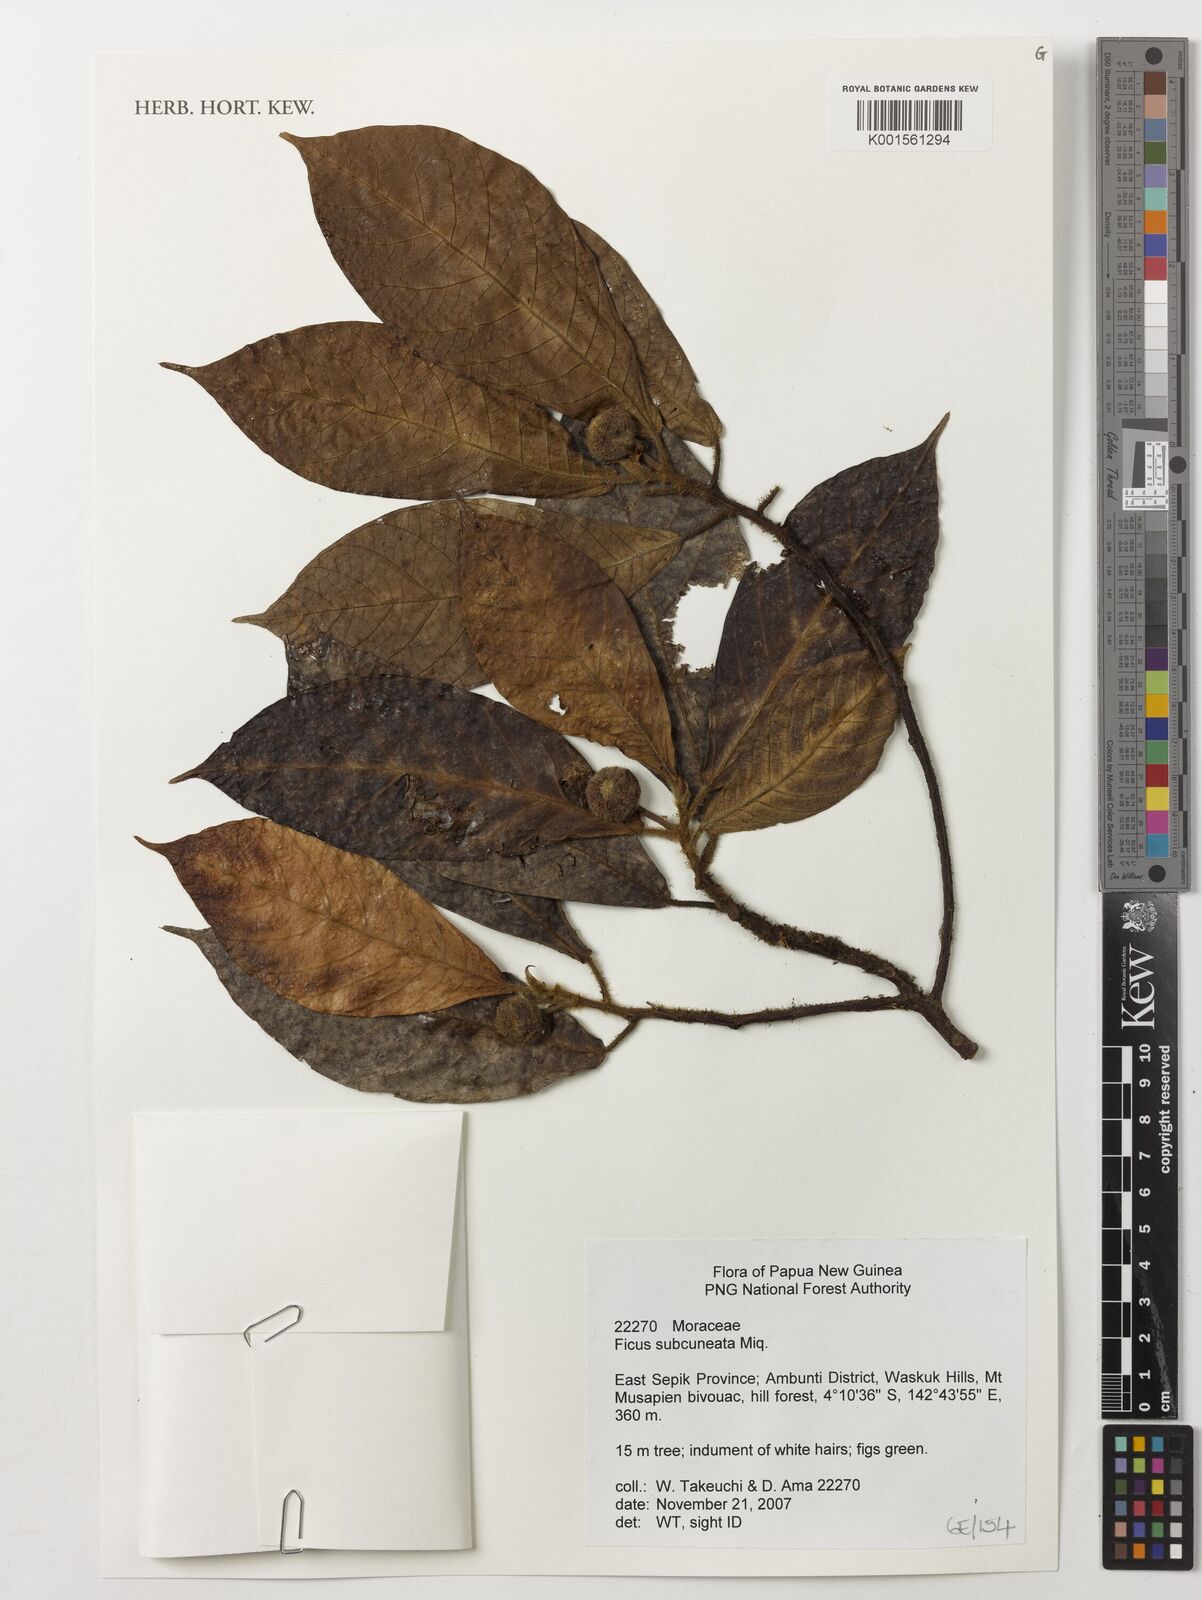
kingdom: Plantae
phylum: Tracheophyta
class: Magnoliopsida
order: Rosales
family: Moraceae
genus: Ficus
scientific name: Ficus subcuneata
